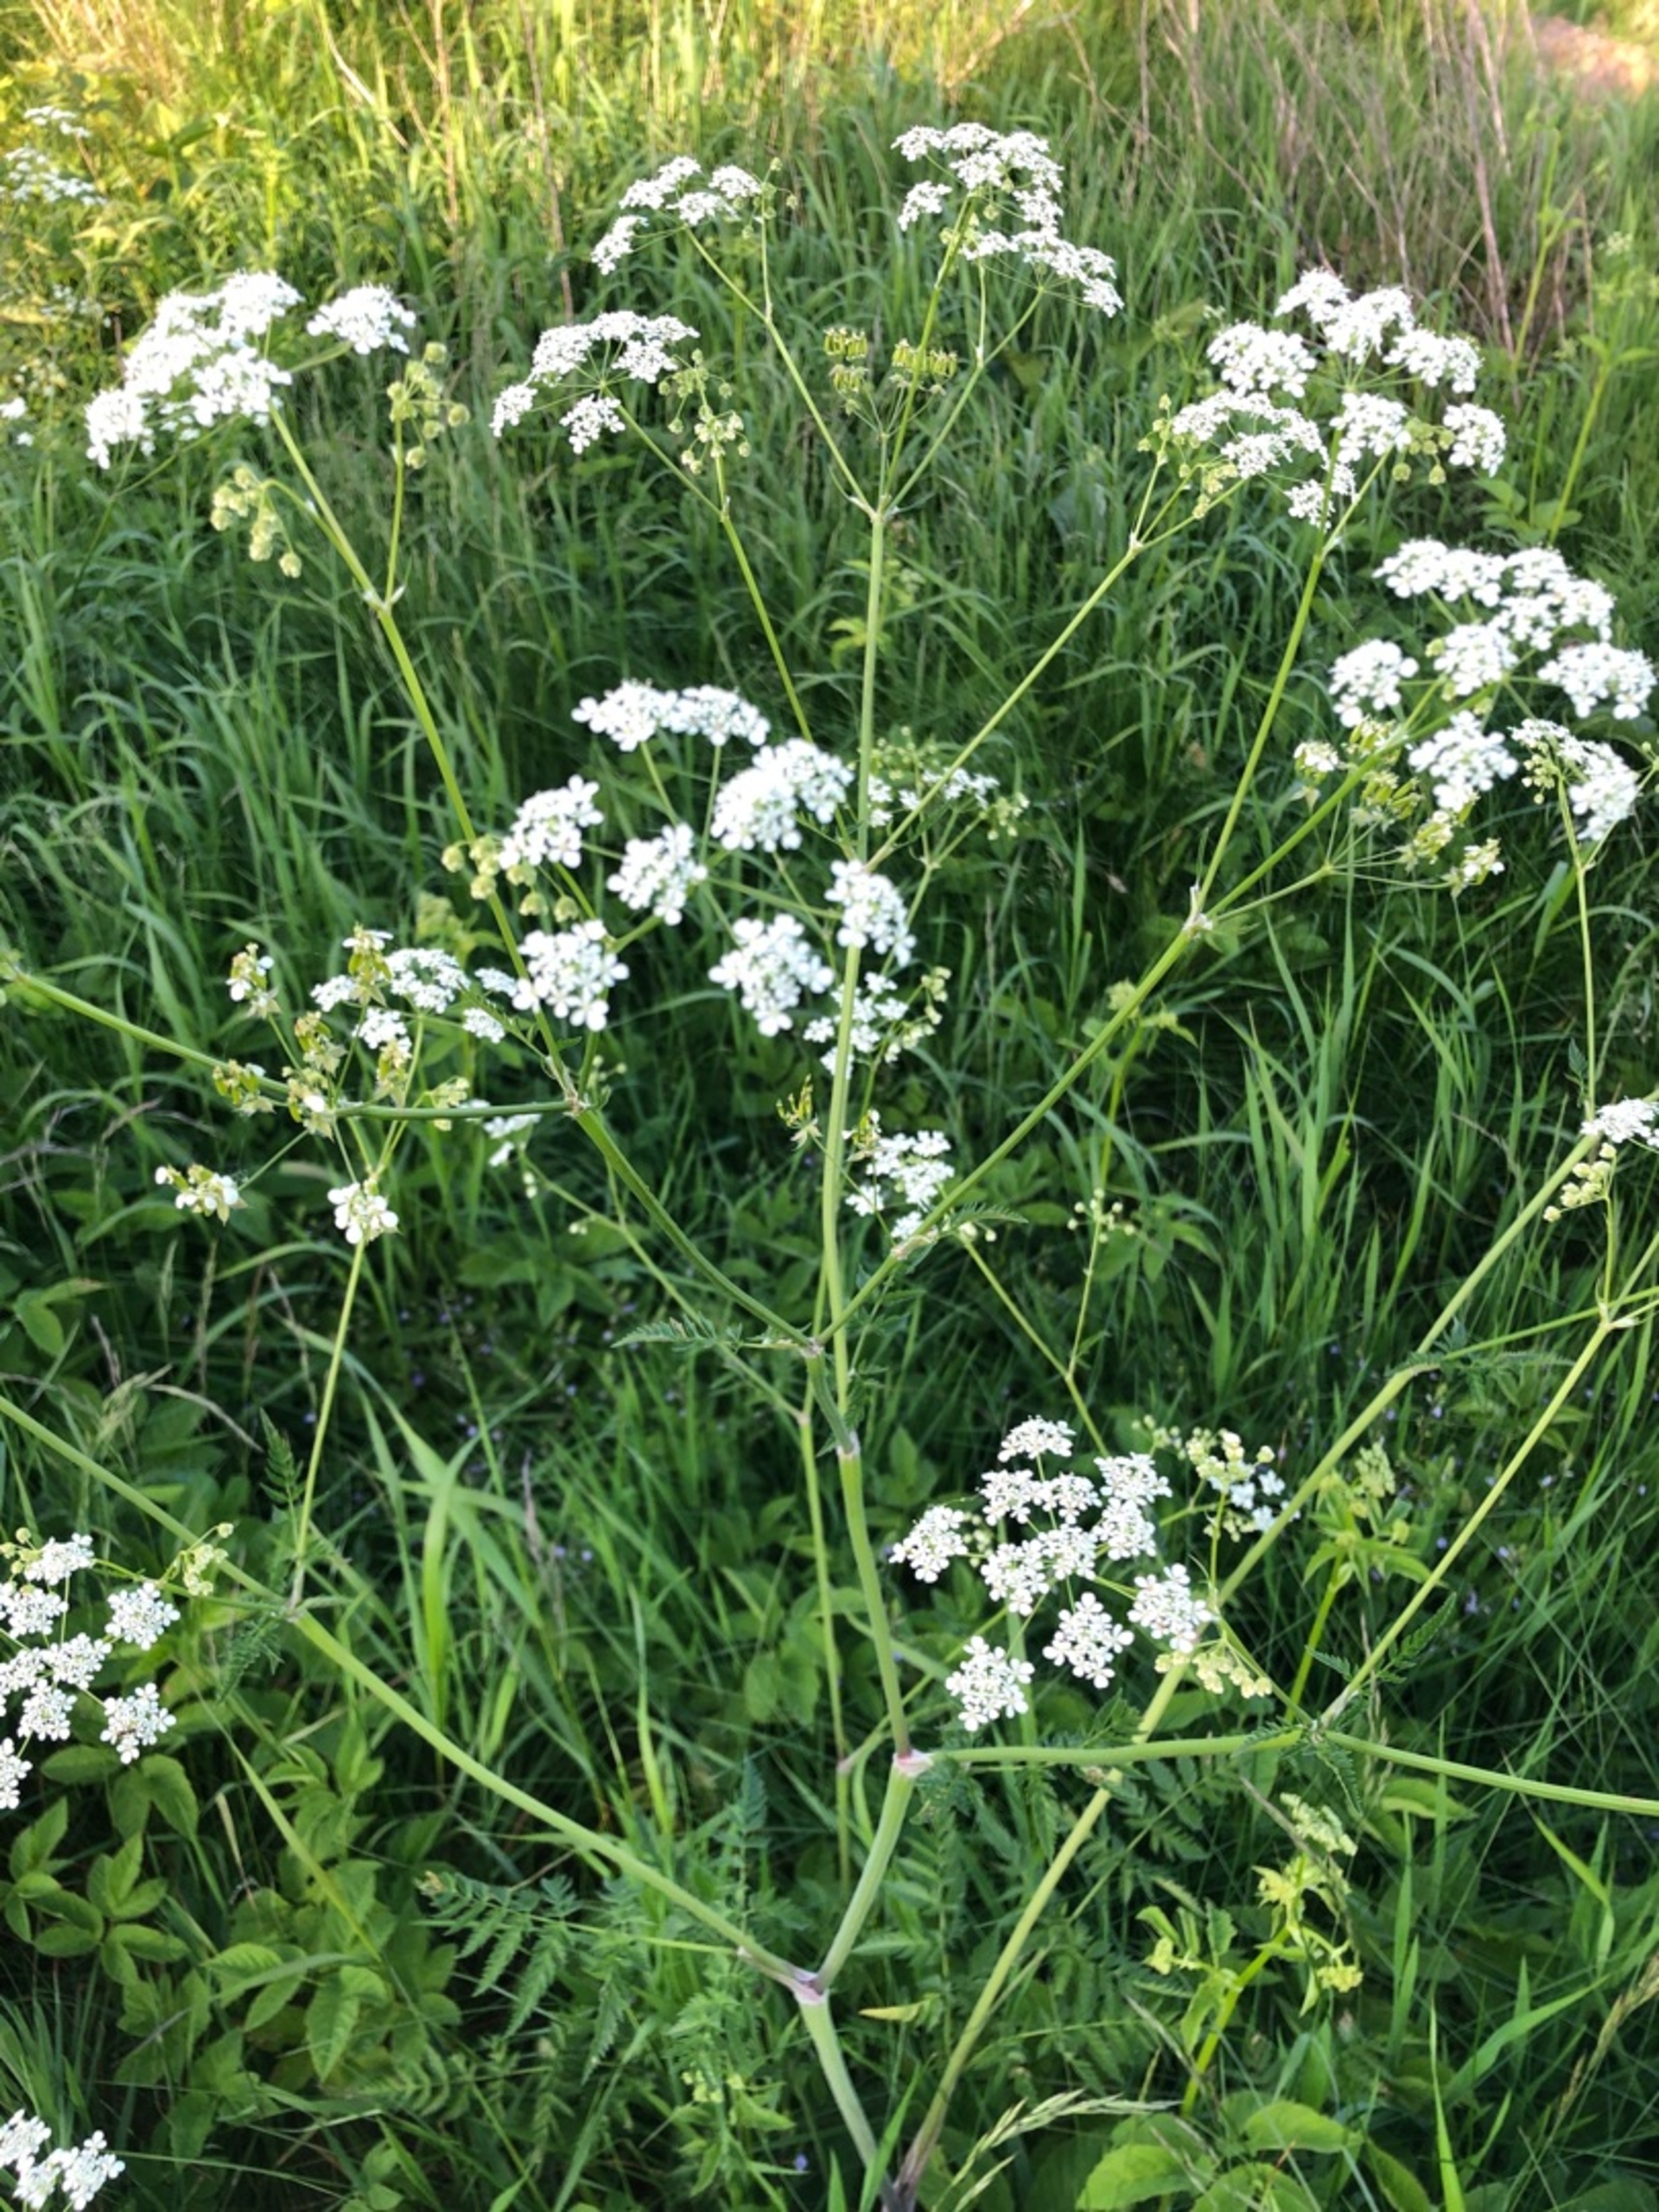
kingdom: Plantae
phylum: Tracheophyta
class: Magnoliopsida
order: Apiales
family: Apiaceae
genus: Anthriscus
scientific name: Anthriscus sylvestris
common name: Vild kørvel
